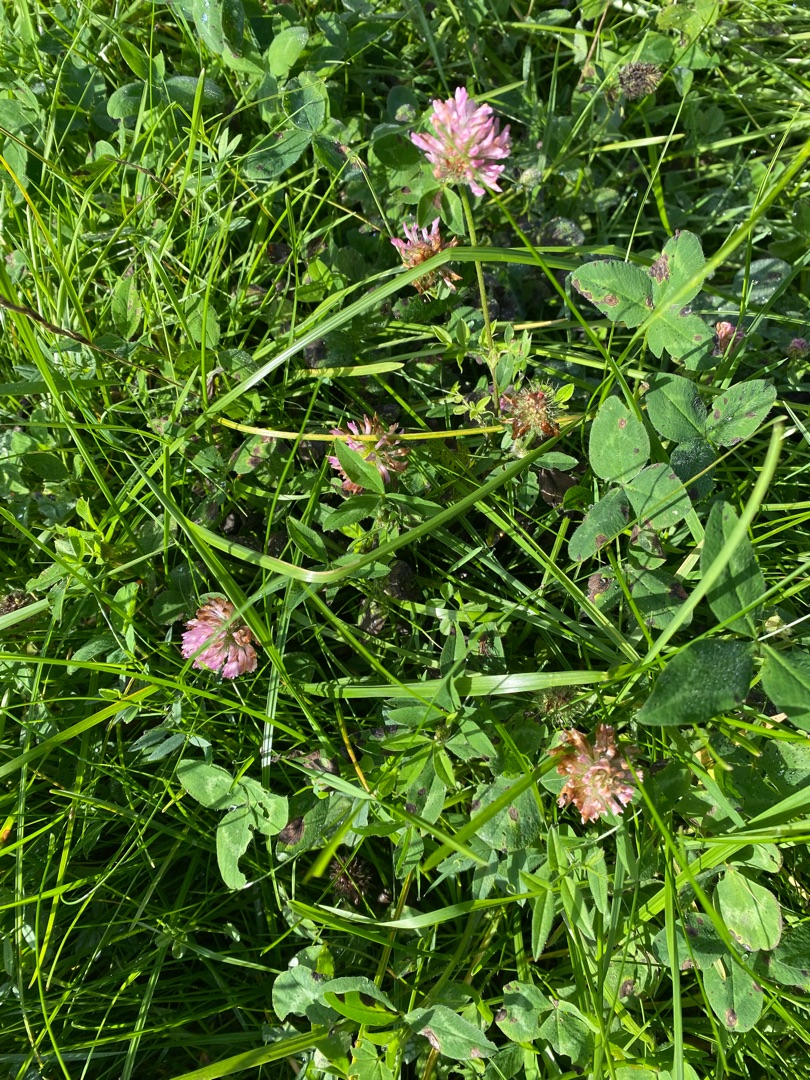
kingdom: Plantae
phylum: Tracheophyta
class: Magnoliopsida
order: Fabales
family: Fabaceae
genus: Trifolium
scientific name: Trifolium pratense
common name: Rød-kløver
